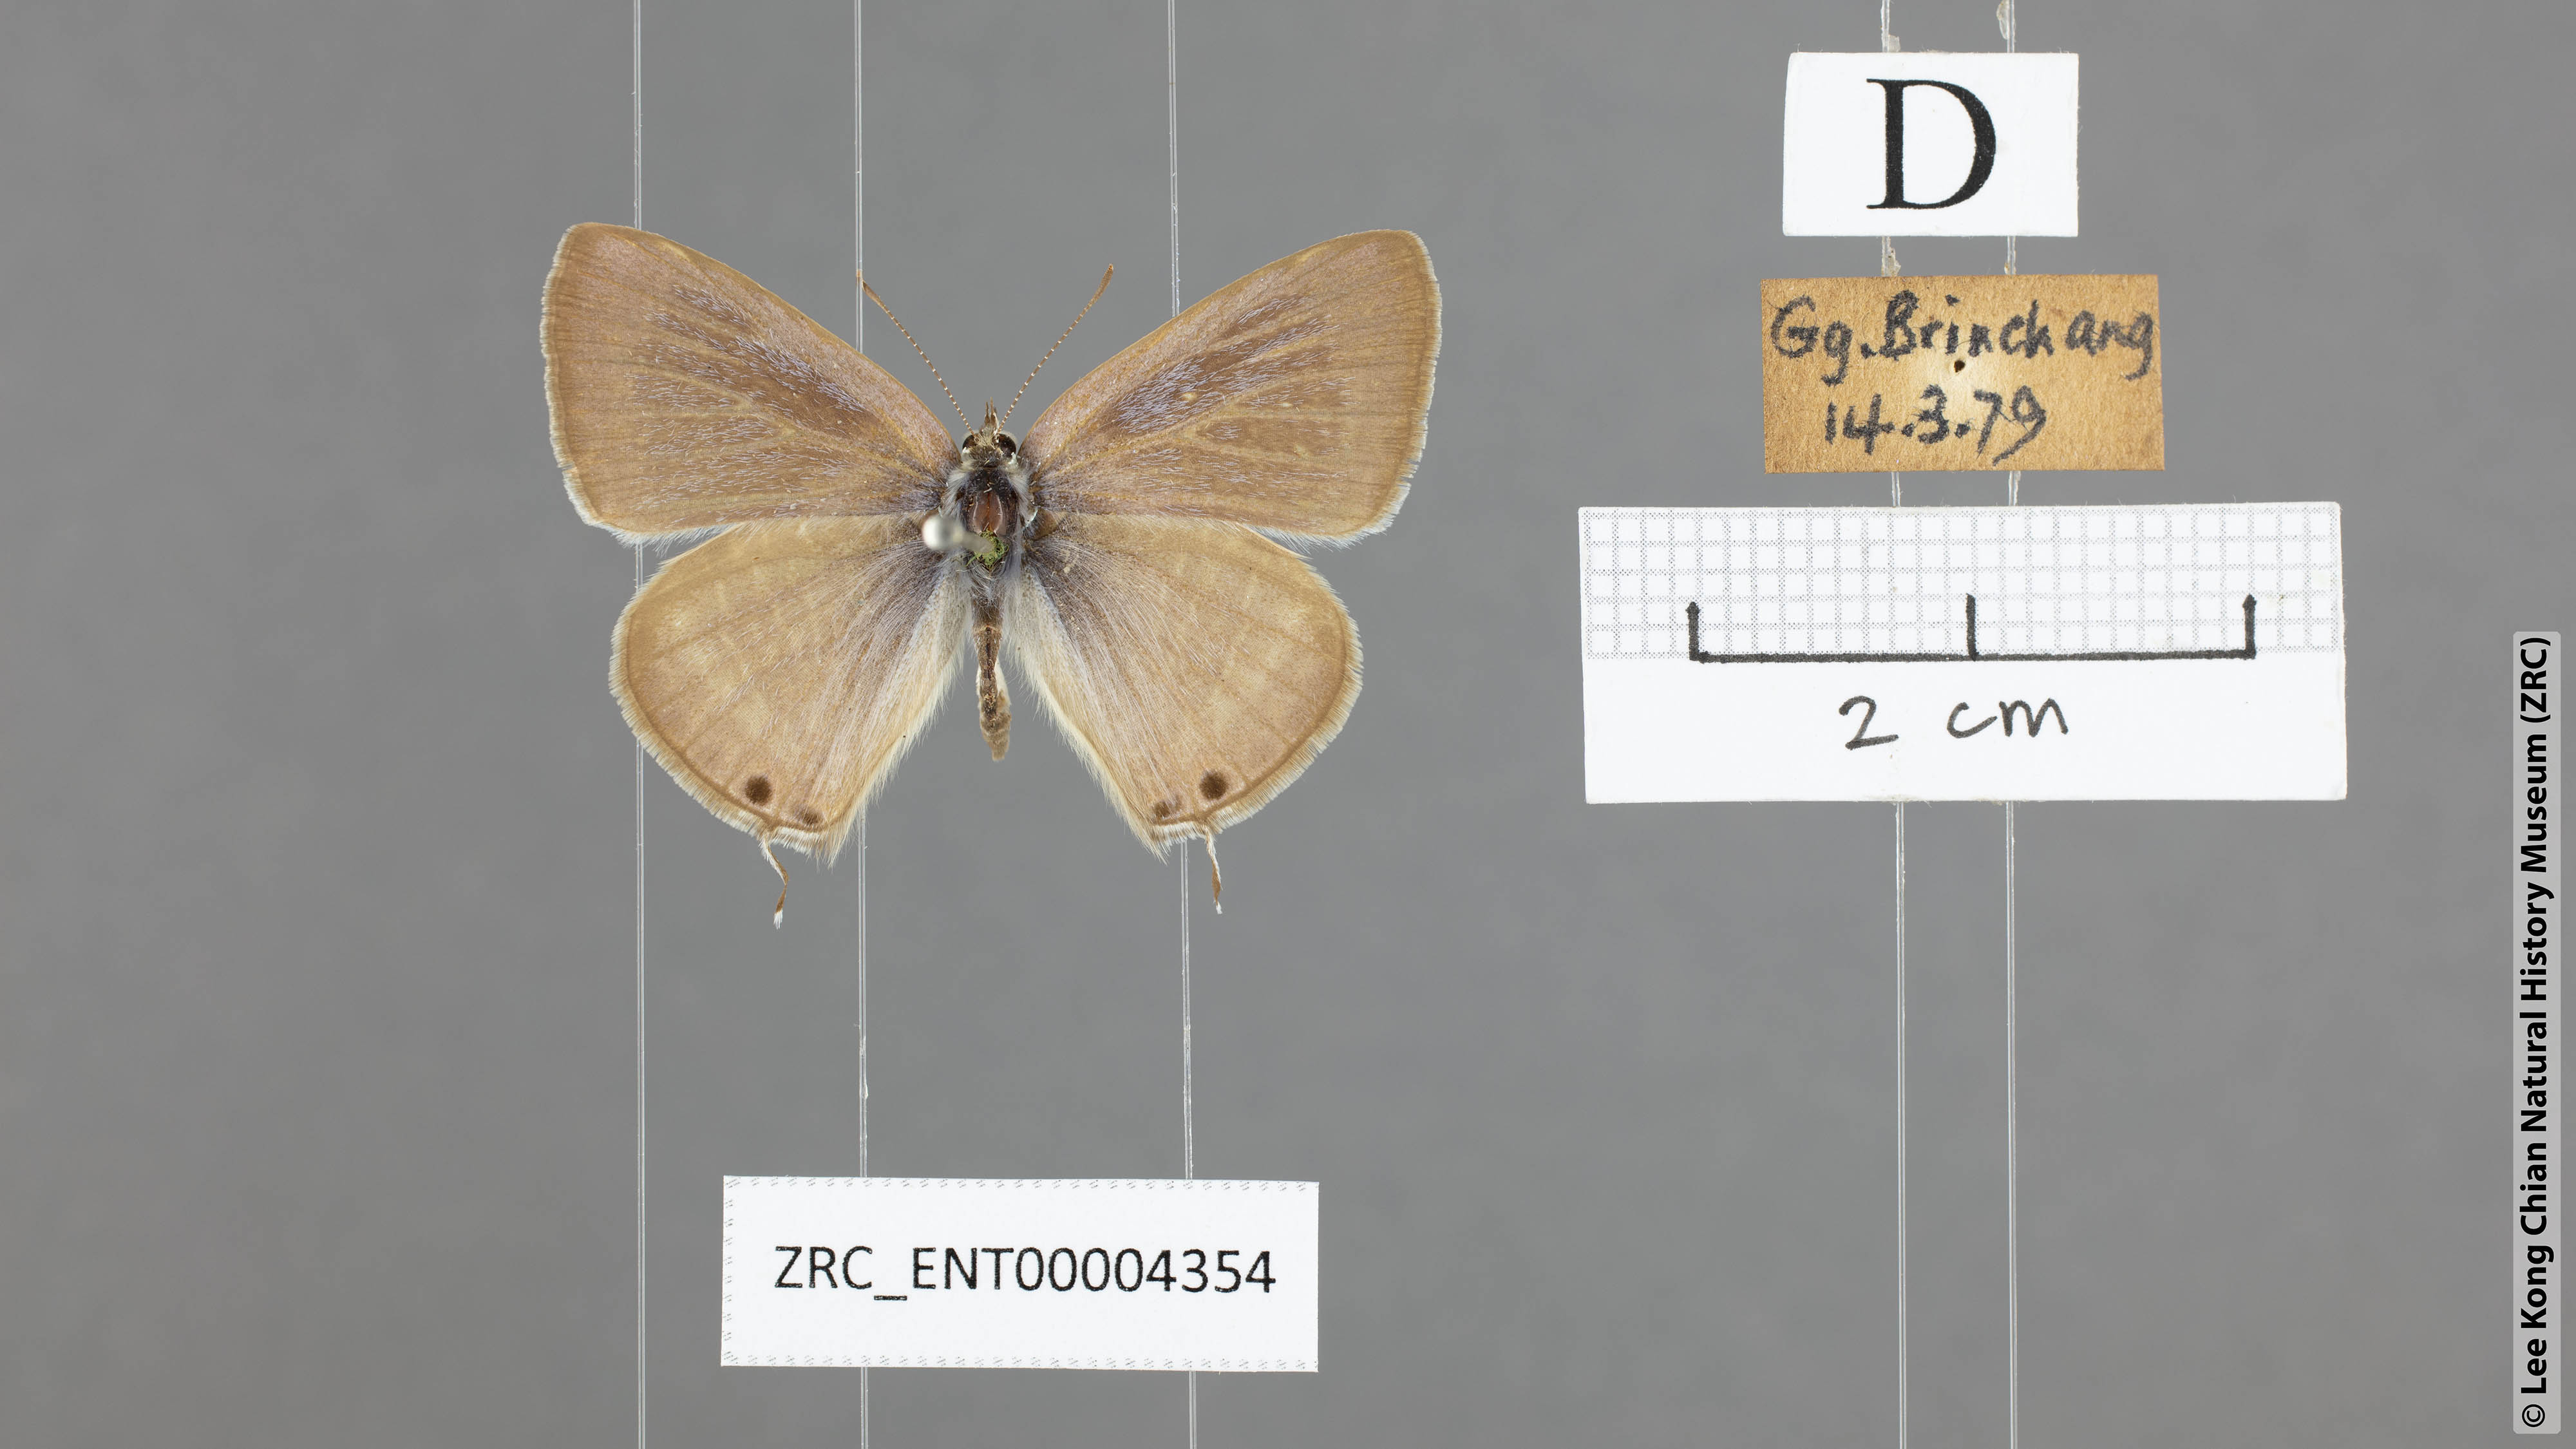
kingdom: Animalia
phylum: Arthropoda
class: Insecta
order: Lepidoptera
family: Lycaenidae
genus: Lampides
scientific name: Lampides boeticus
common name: Long-tailed blue
